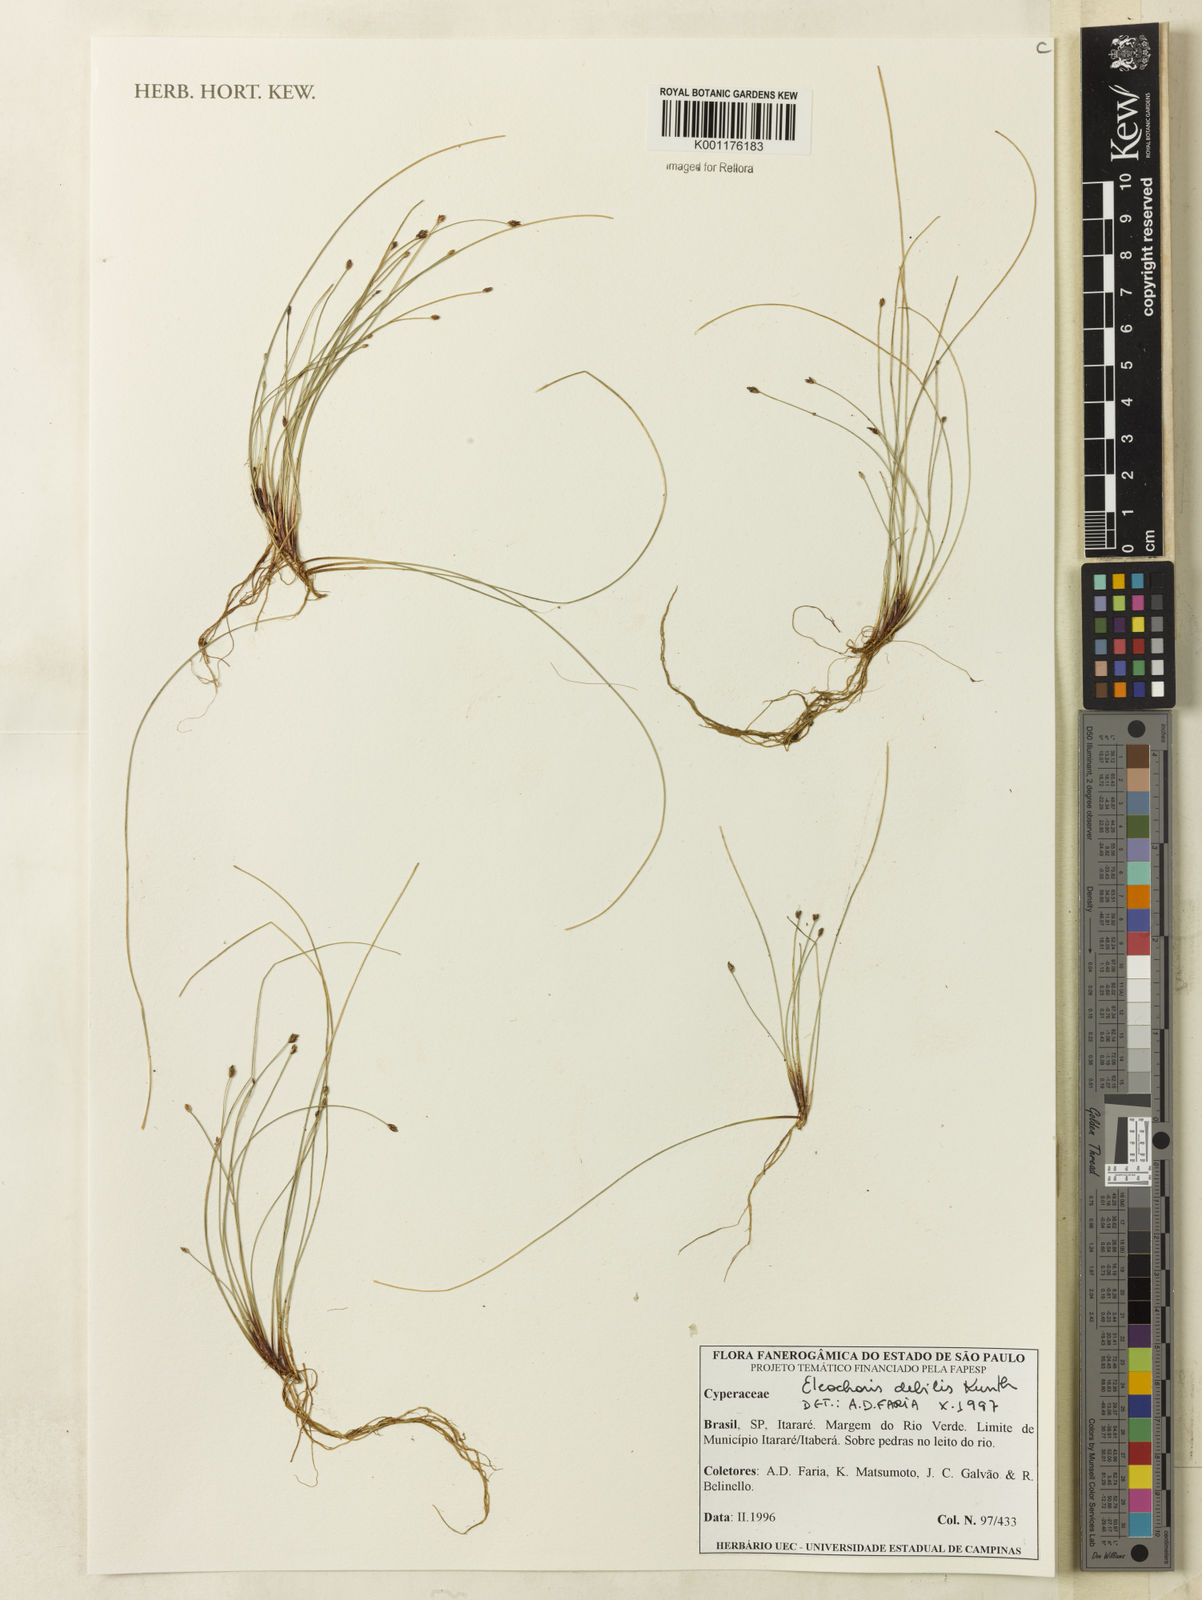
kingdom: Plantae
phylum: Tracheophyta
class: Liliopsida
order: Poales
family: Cyperaceae
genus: Eleocharis
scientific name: Eleocharis maculosa
